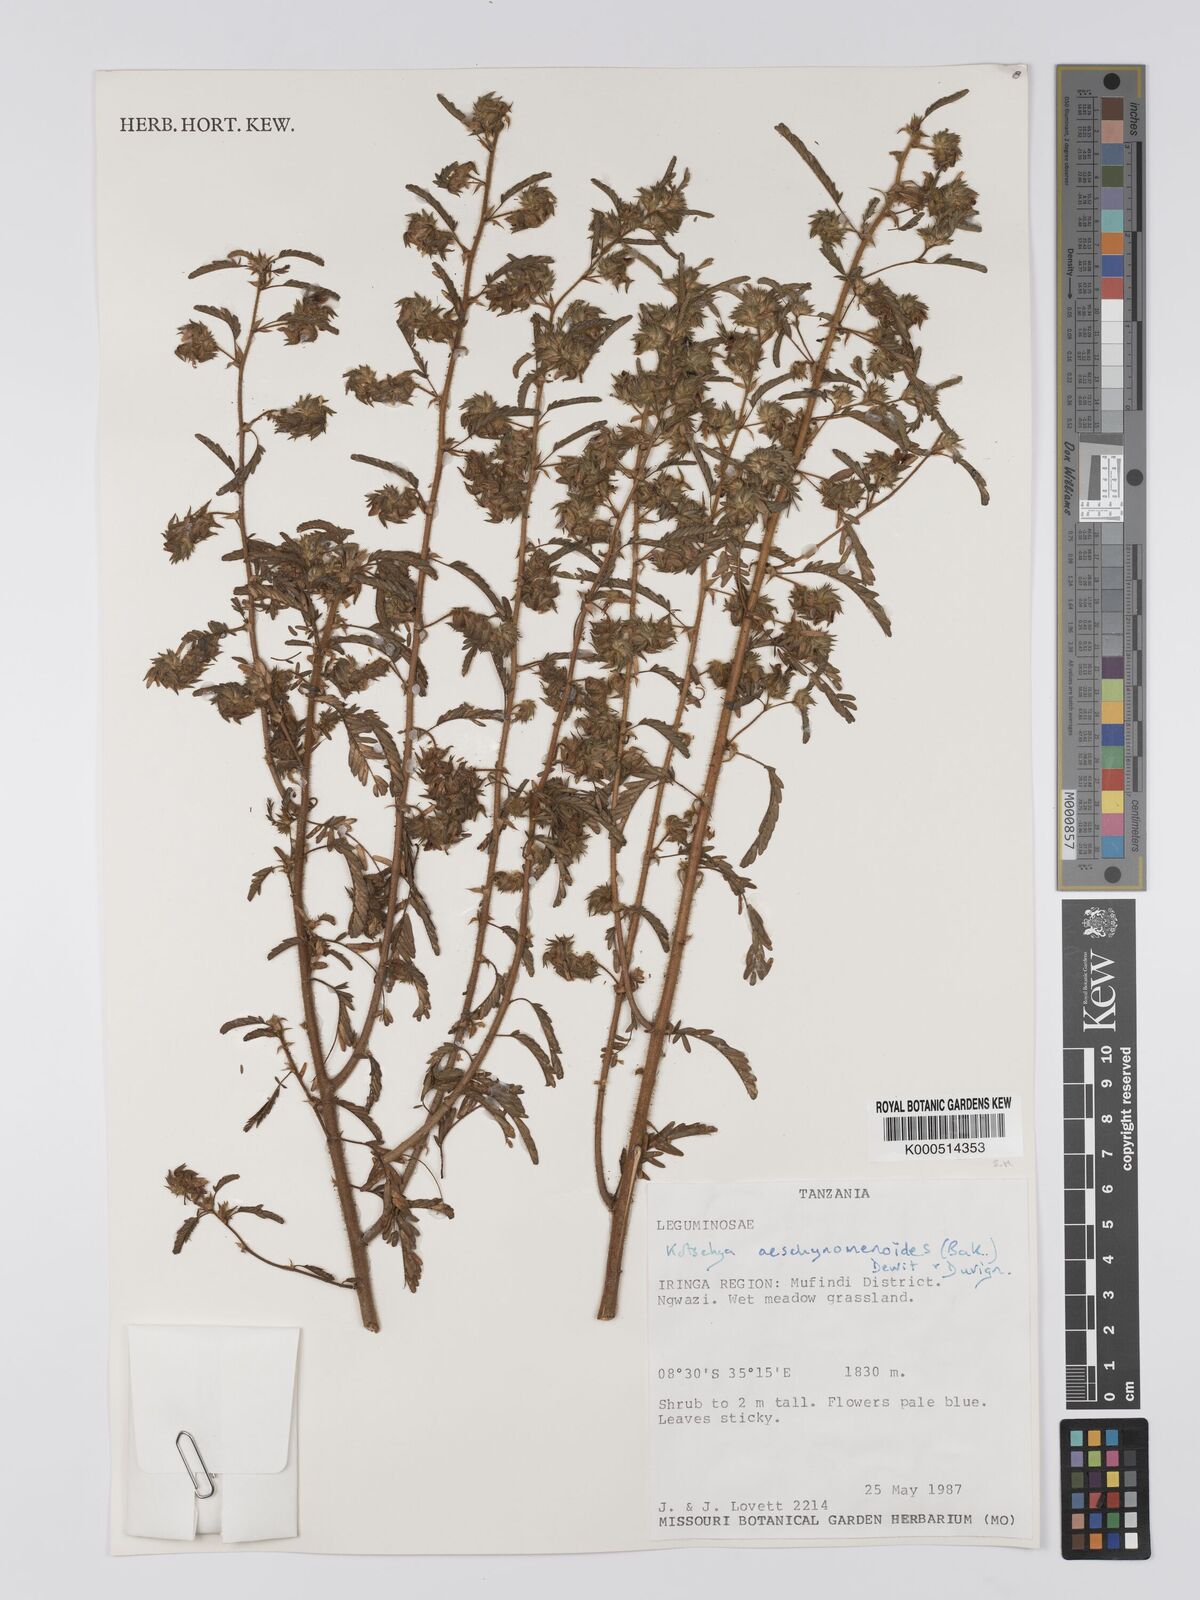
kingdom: Plantae
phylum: Tracheophyta
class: Magnoliopsida
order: Fabales
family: Fabaceae
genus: Kotschya
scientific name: Kotschya aeschynomenoides
